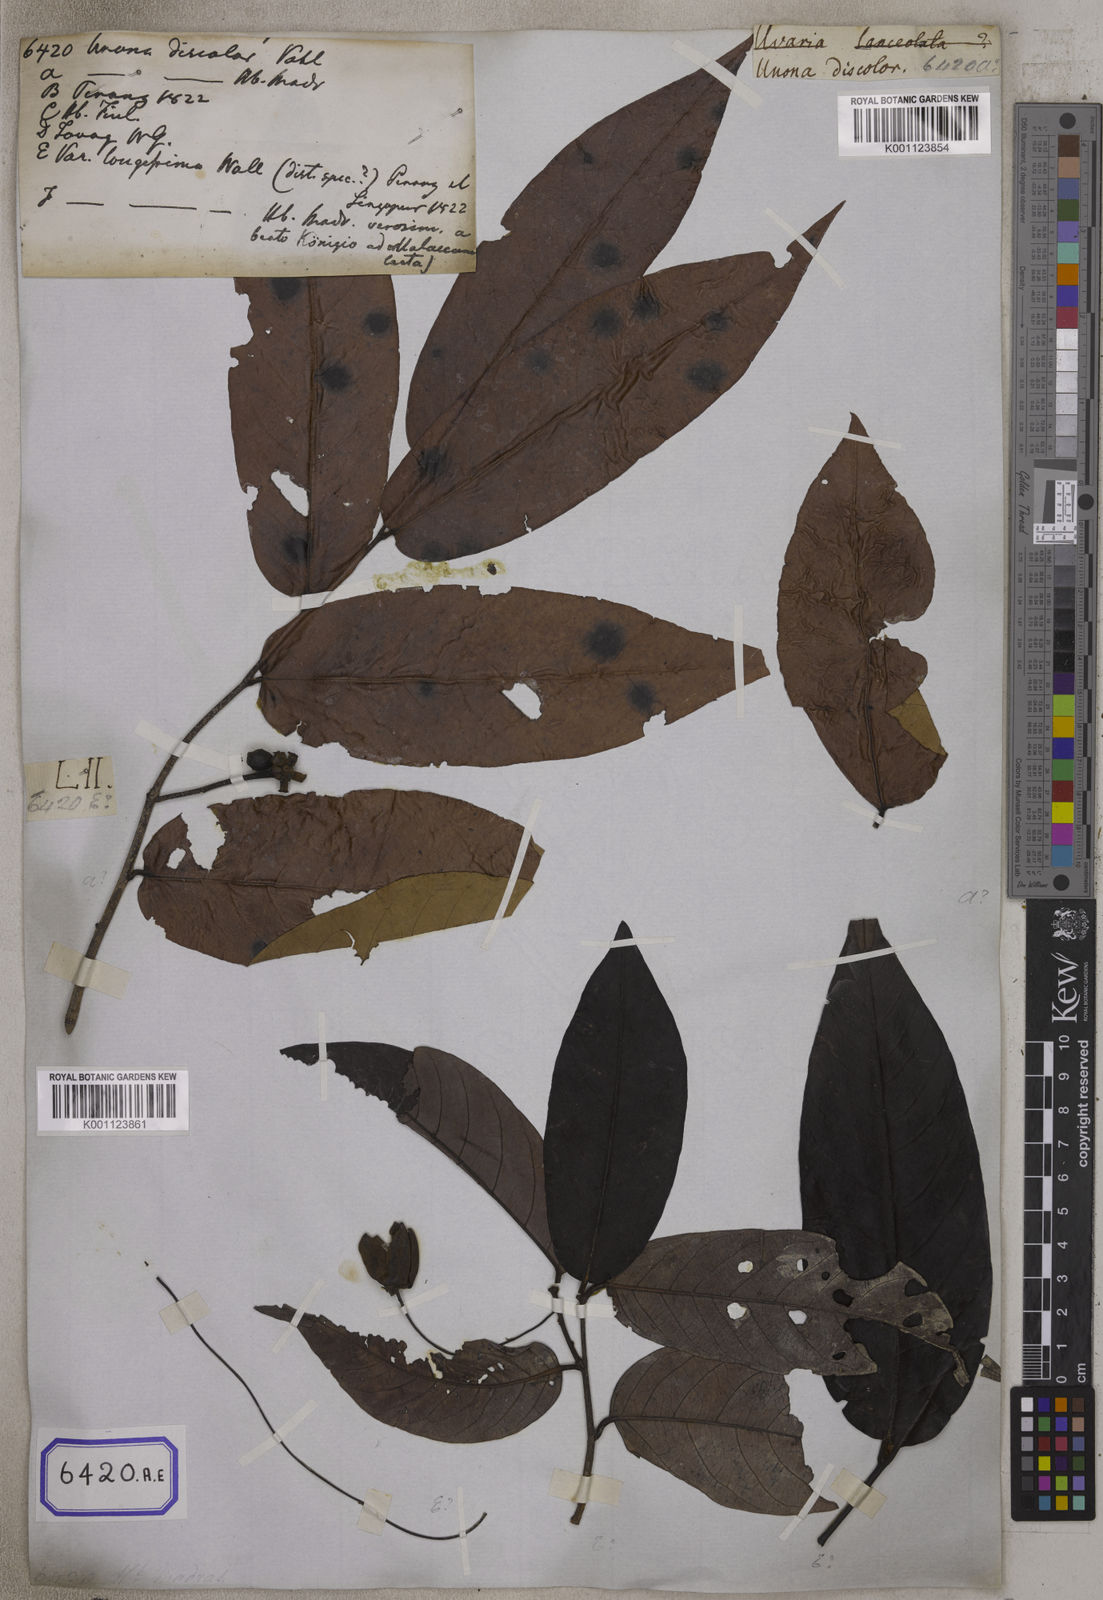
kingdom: Plantae
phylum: Tracheophyta
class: Magnoliopsida
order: Magnoliales
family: Annonaceae
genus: Desmos
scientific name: Desmos chinensis
